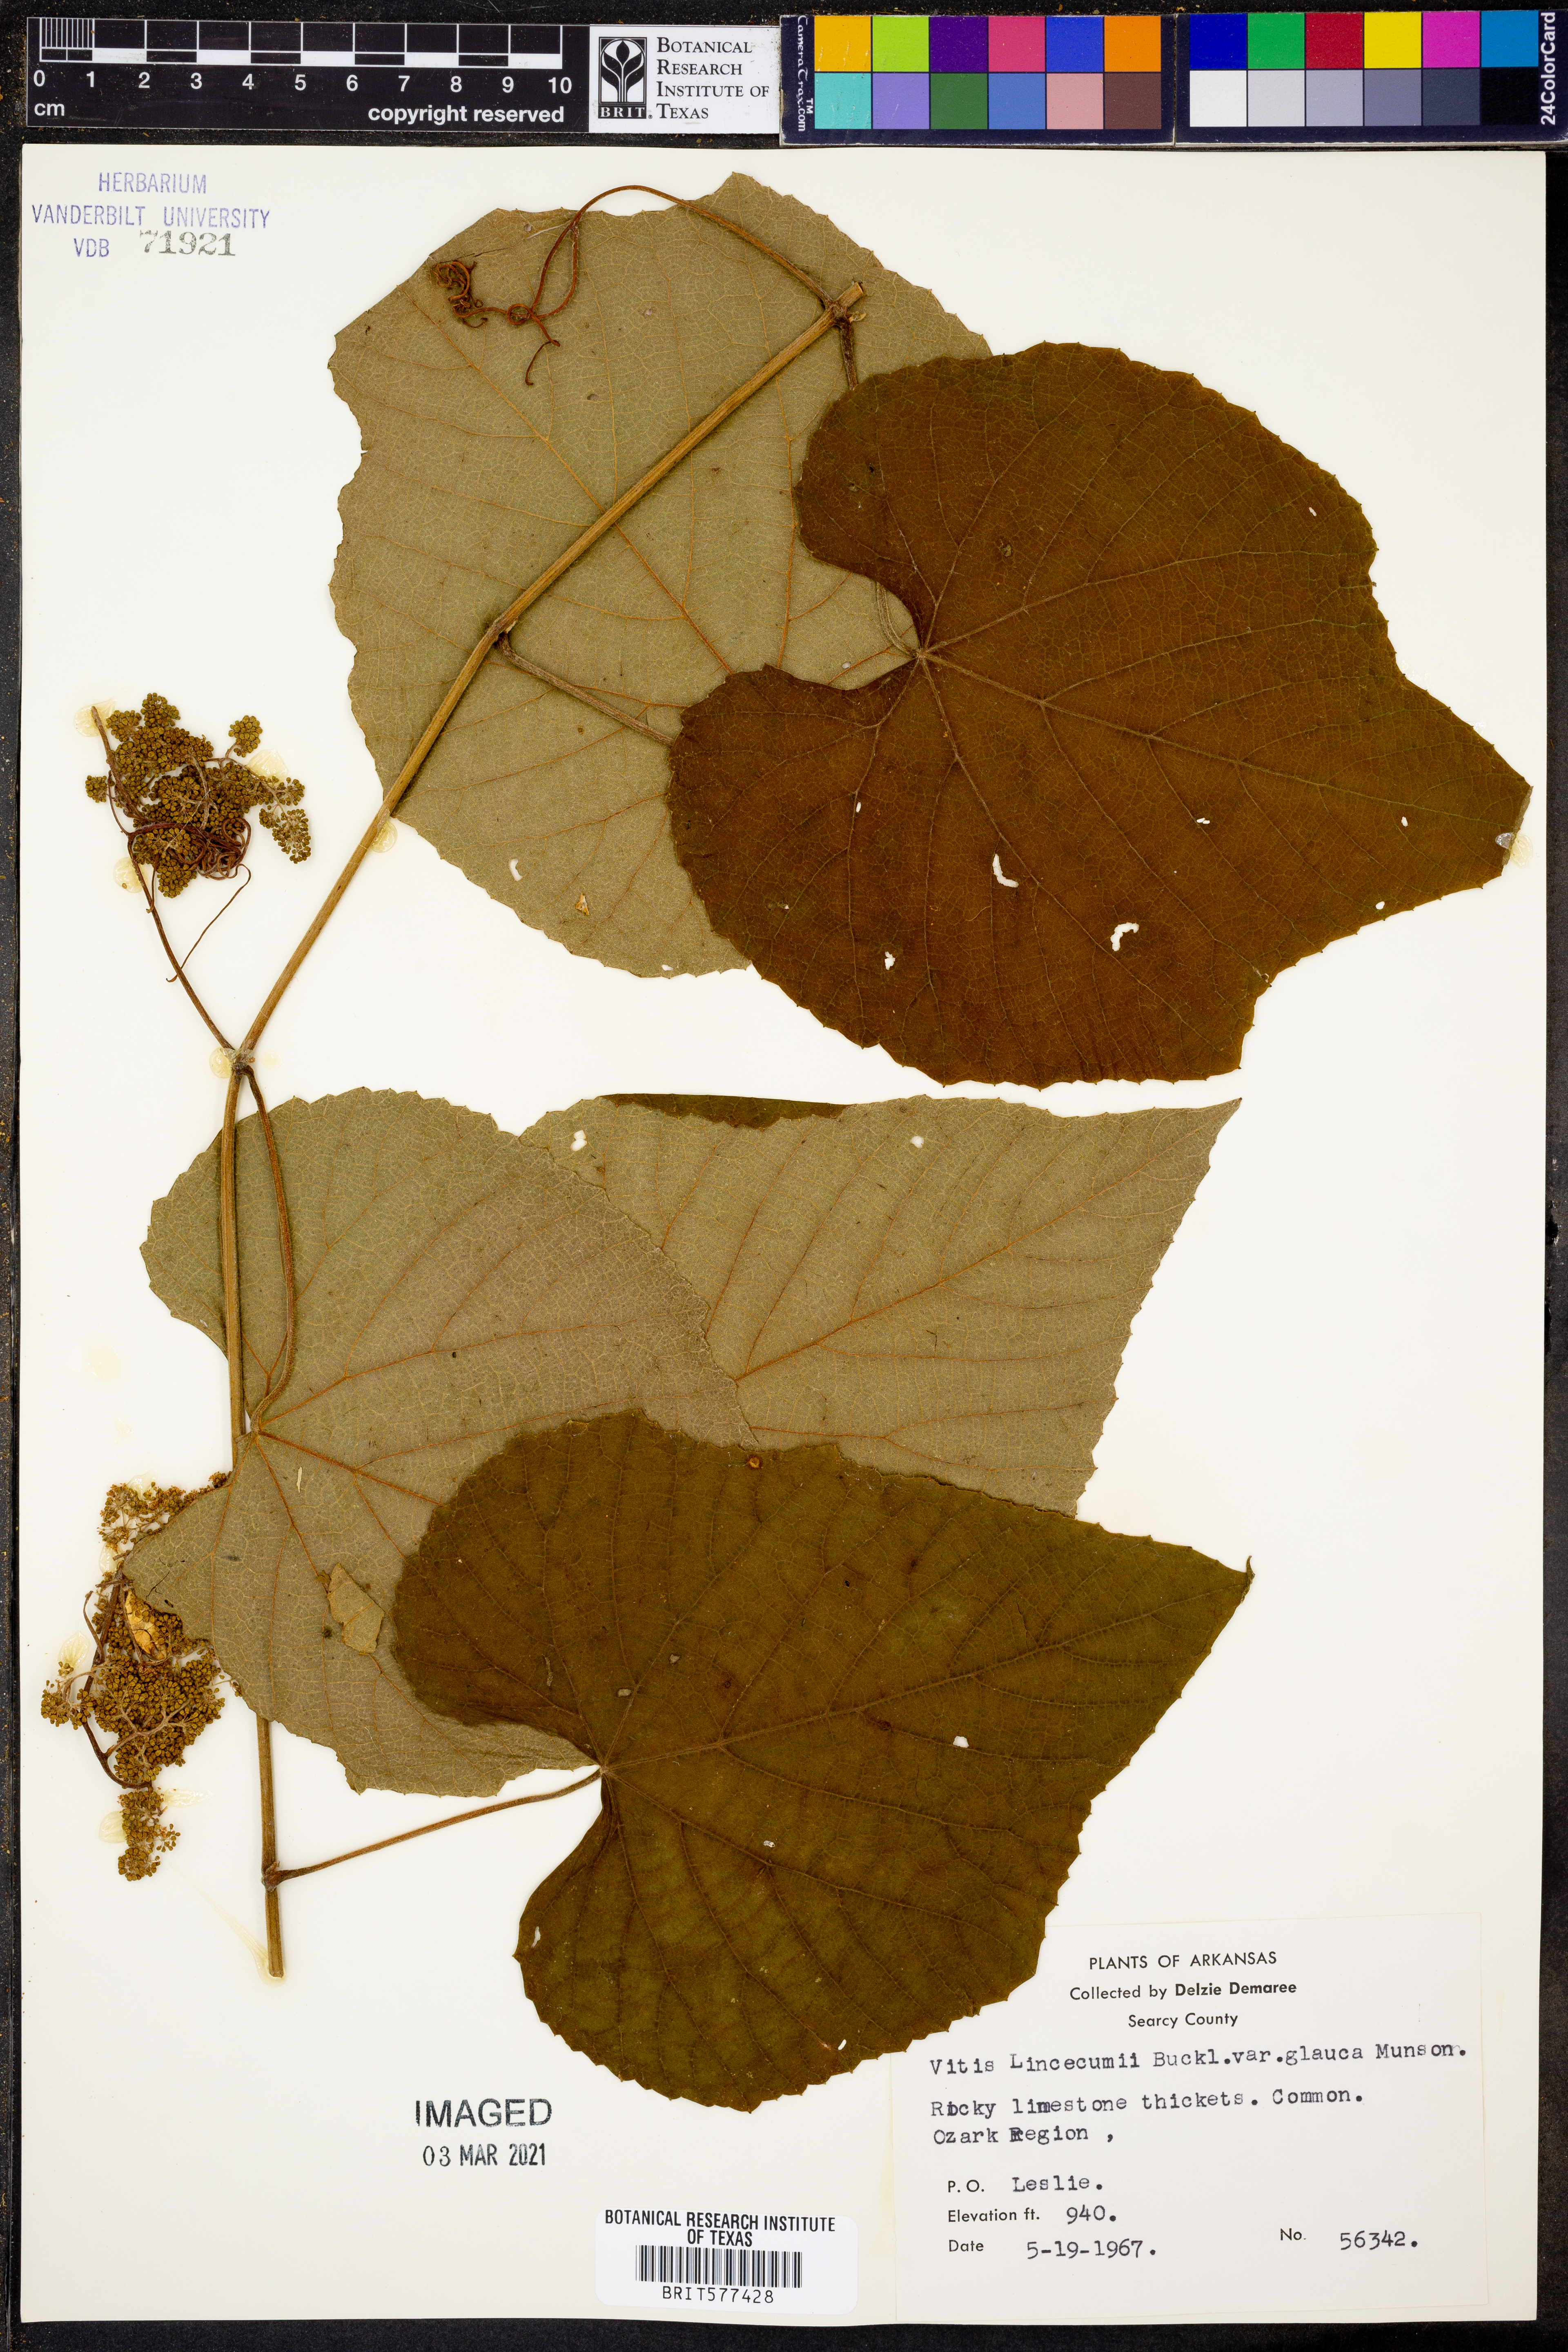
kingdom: Plantae
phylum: Tracheophyta
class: Magnoliopsida
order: Vitales
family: Vitaceae
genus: Vitis
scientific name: Vitis aestivalis
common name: Pigeon grape
